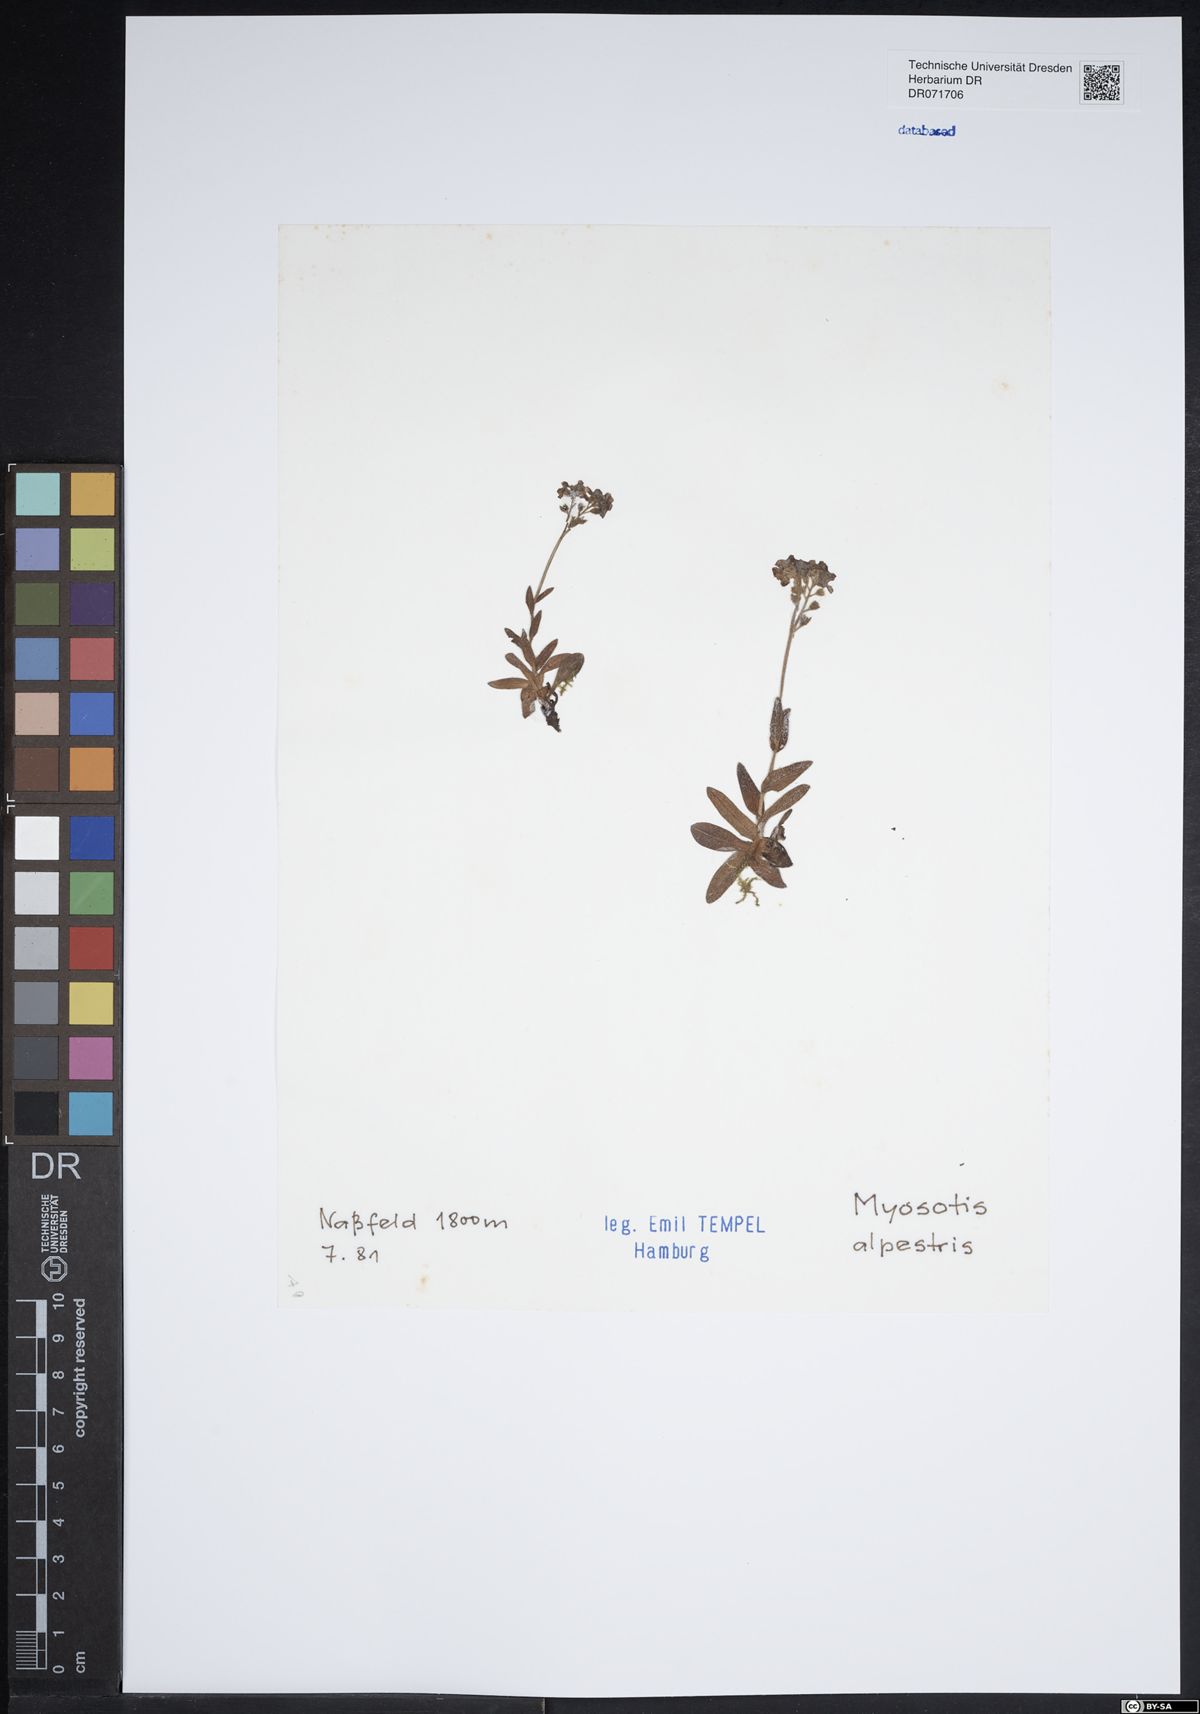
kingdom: Plantae
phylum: Tracheophyta
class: Magnoliopsida
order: Boraginales
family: Boraginaceae
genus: Myosotis
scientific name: Myosotis alpestris
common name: Alpine forget-me-not
